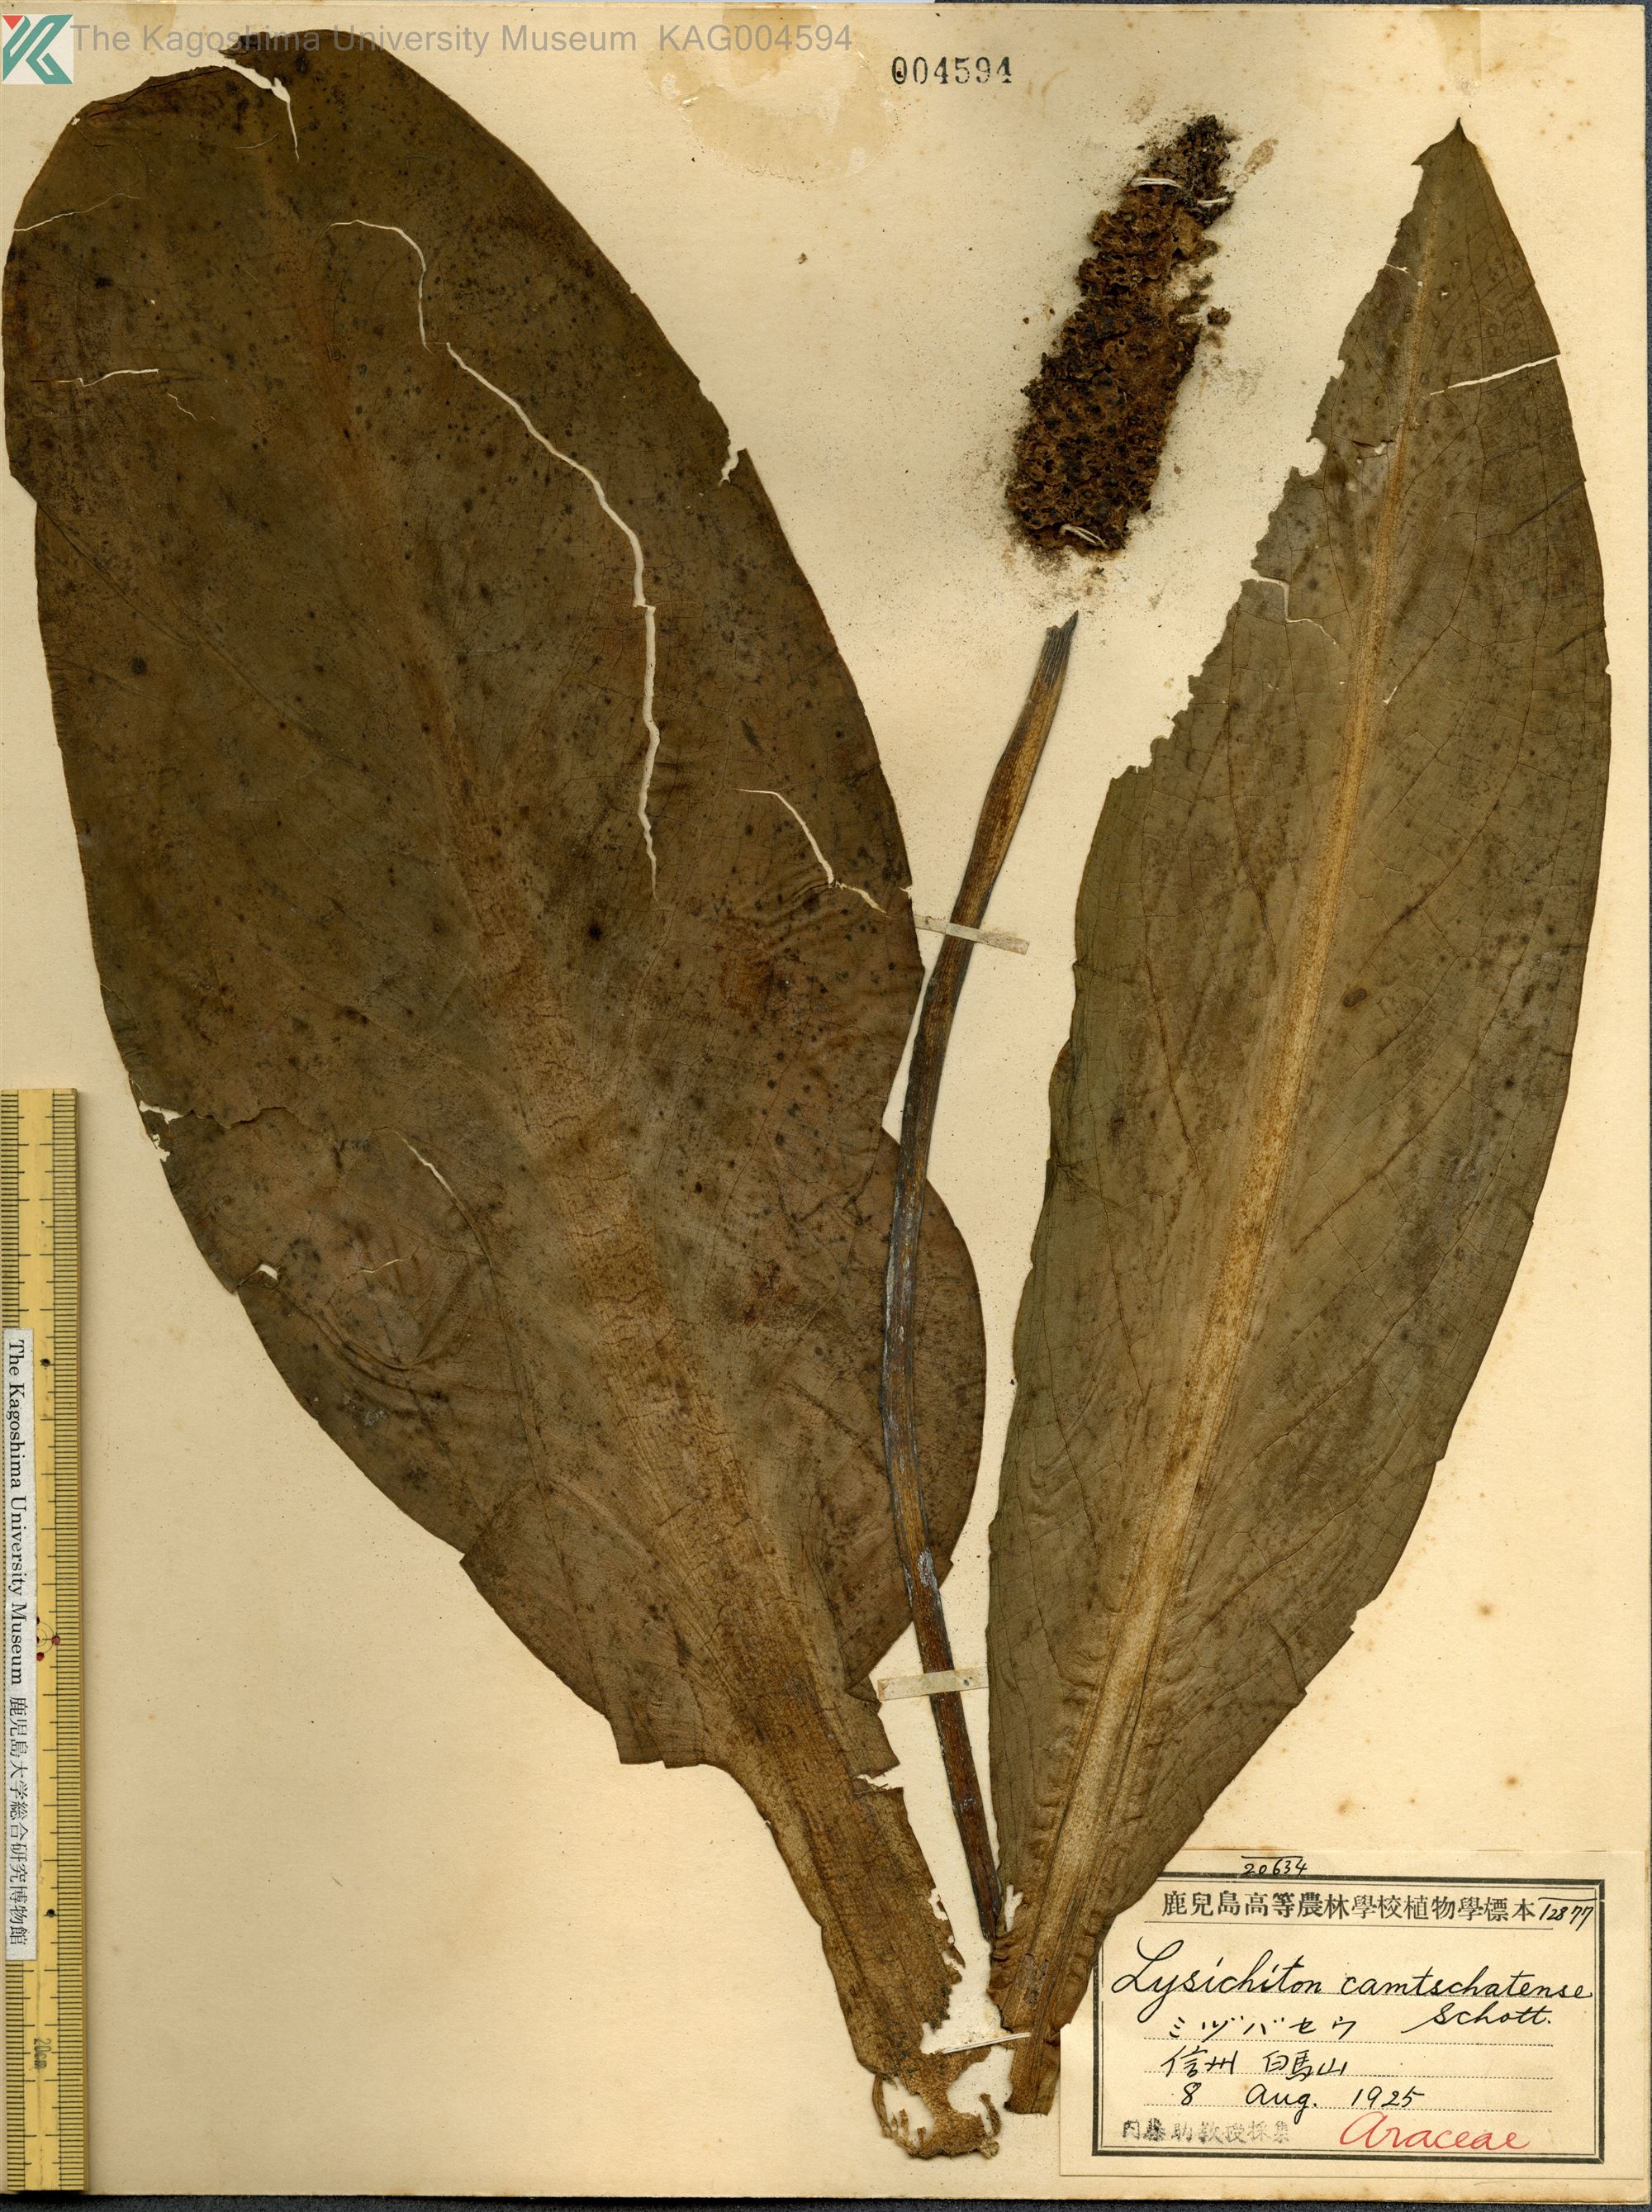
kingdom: Plantae
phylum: Tracheophyta
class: Liliopsida
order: Alismatales
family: Araceae
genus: Lysichiton
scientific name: Lysichiton camtschatcensis
